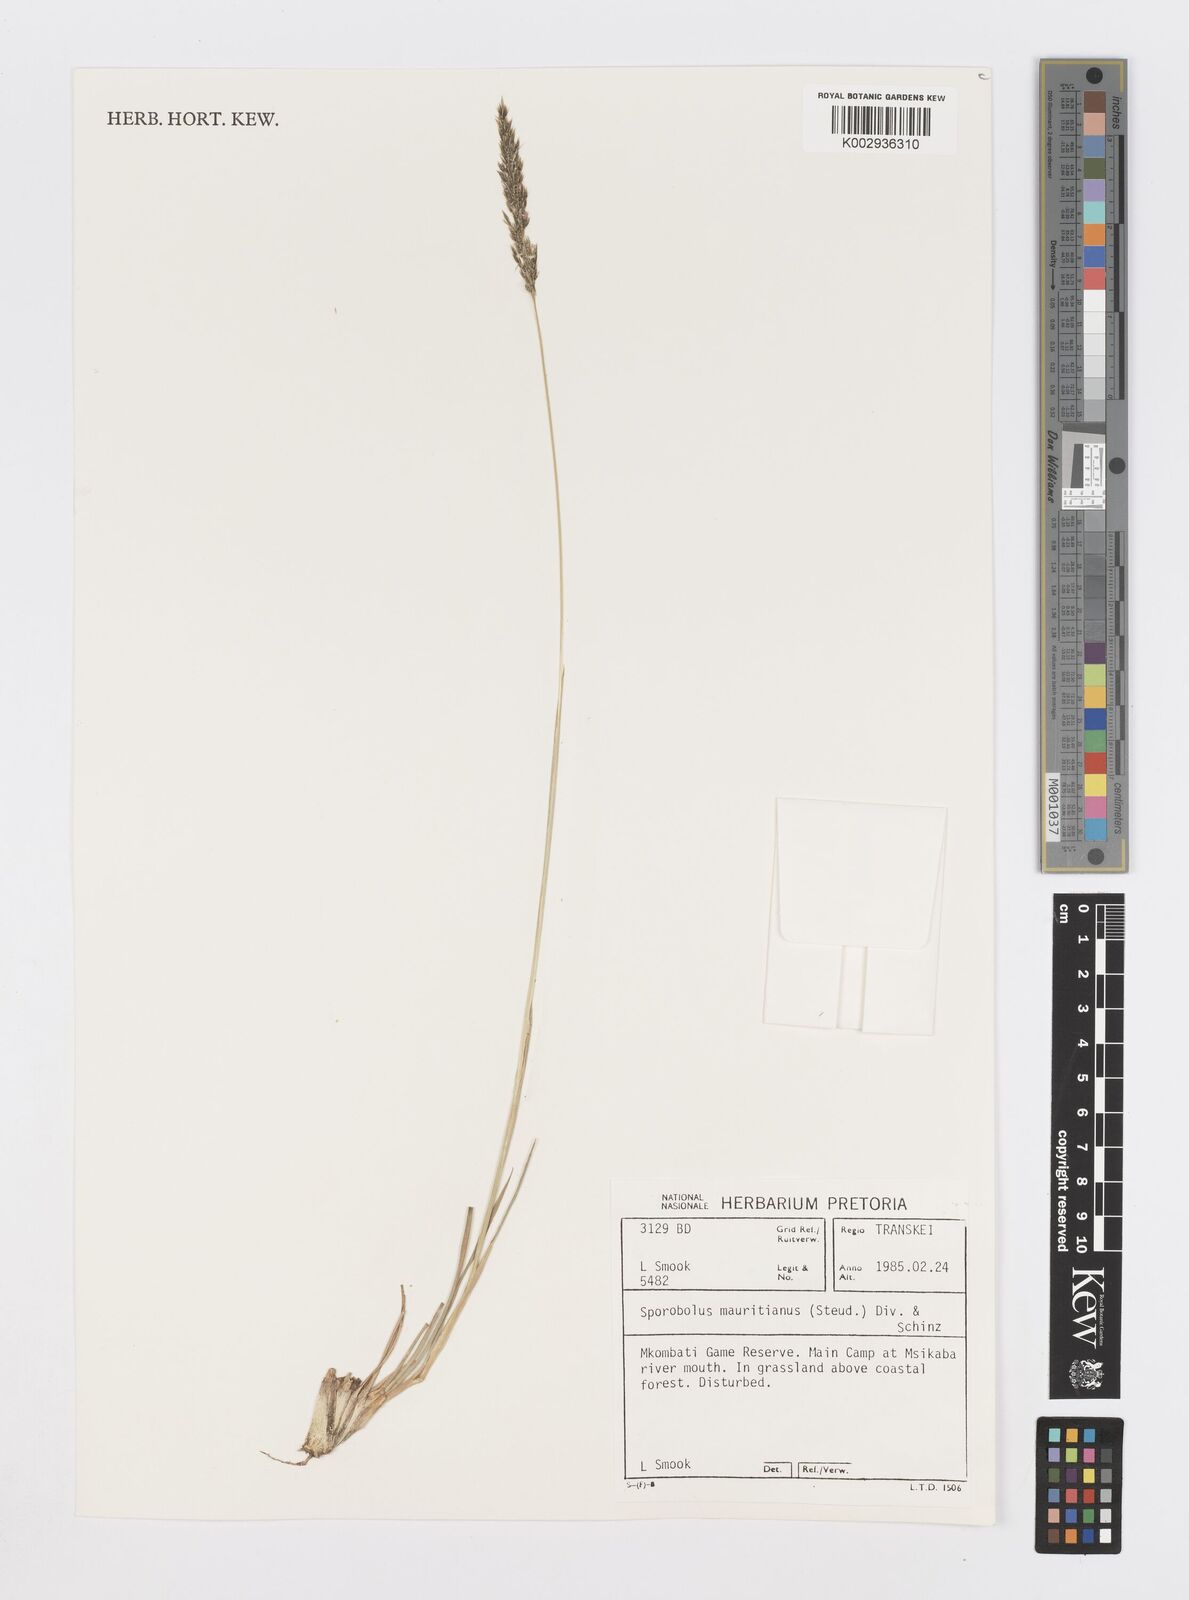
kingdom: Plantae
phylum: Tracheophyta
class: Liliopsida
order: Poales
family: Poaceae
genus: Sporobolus
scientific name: Sporobolus subulatus
